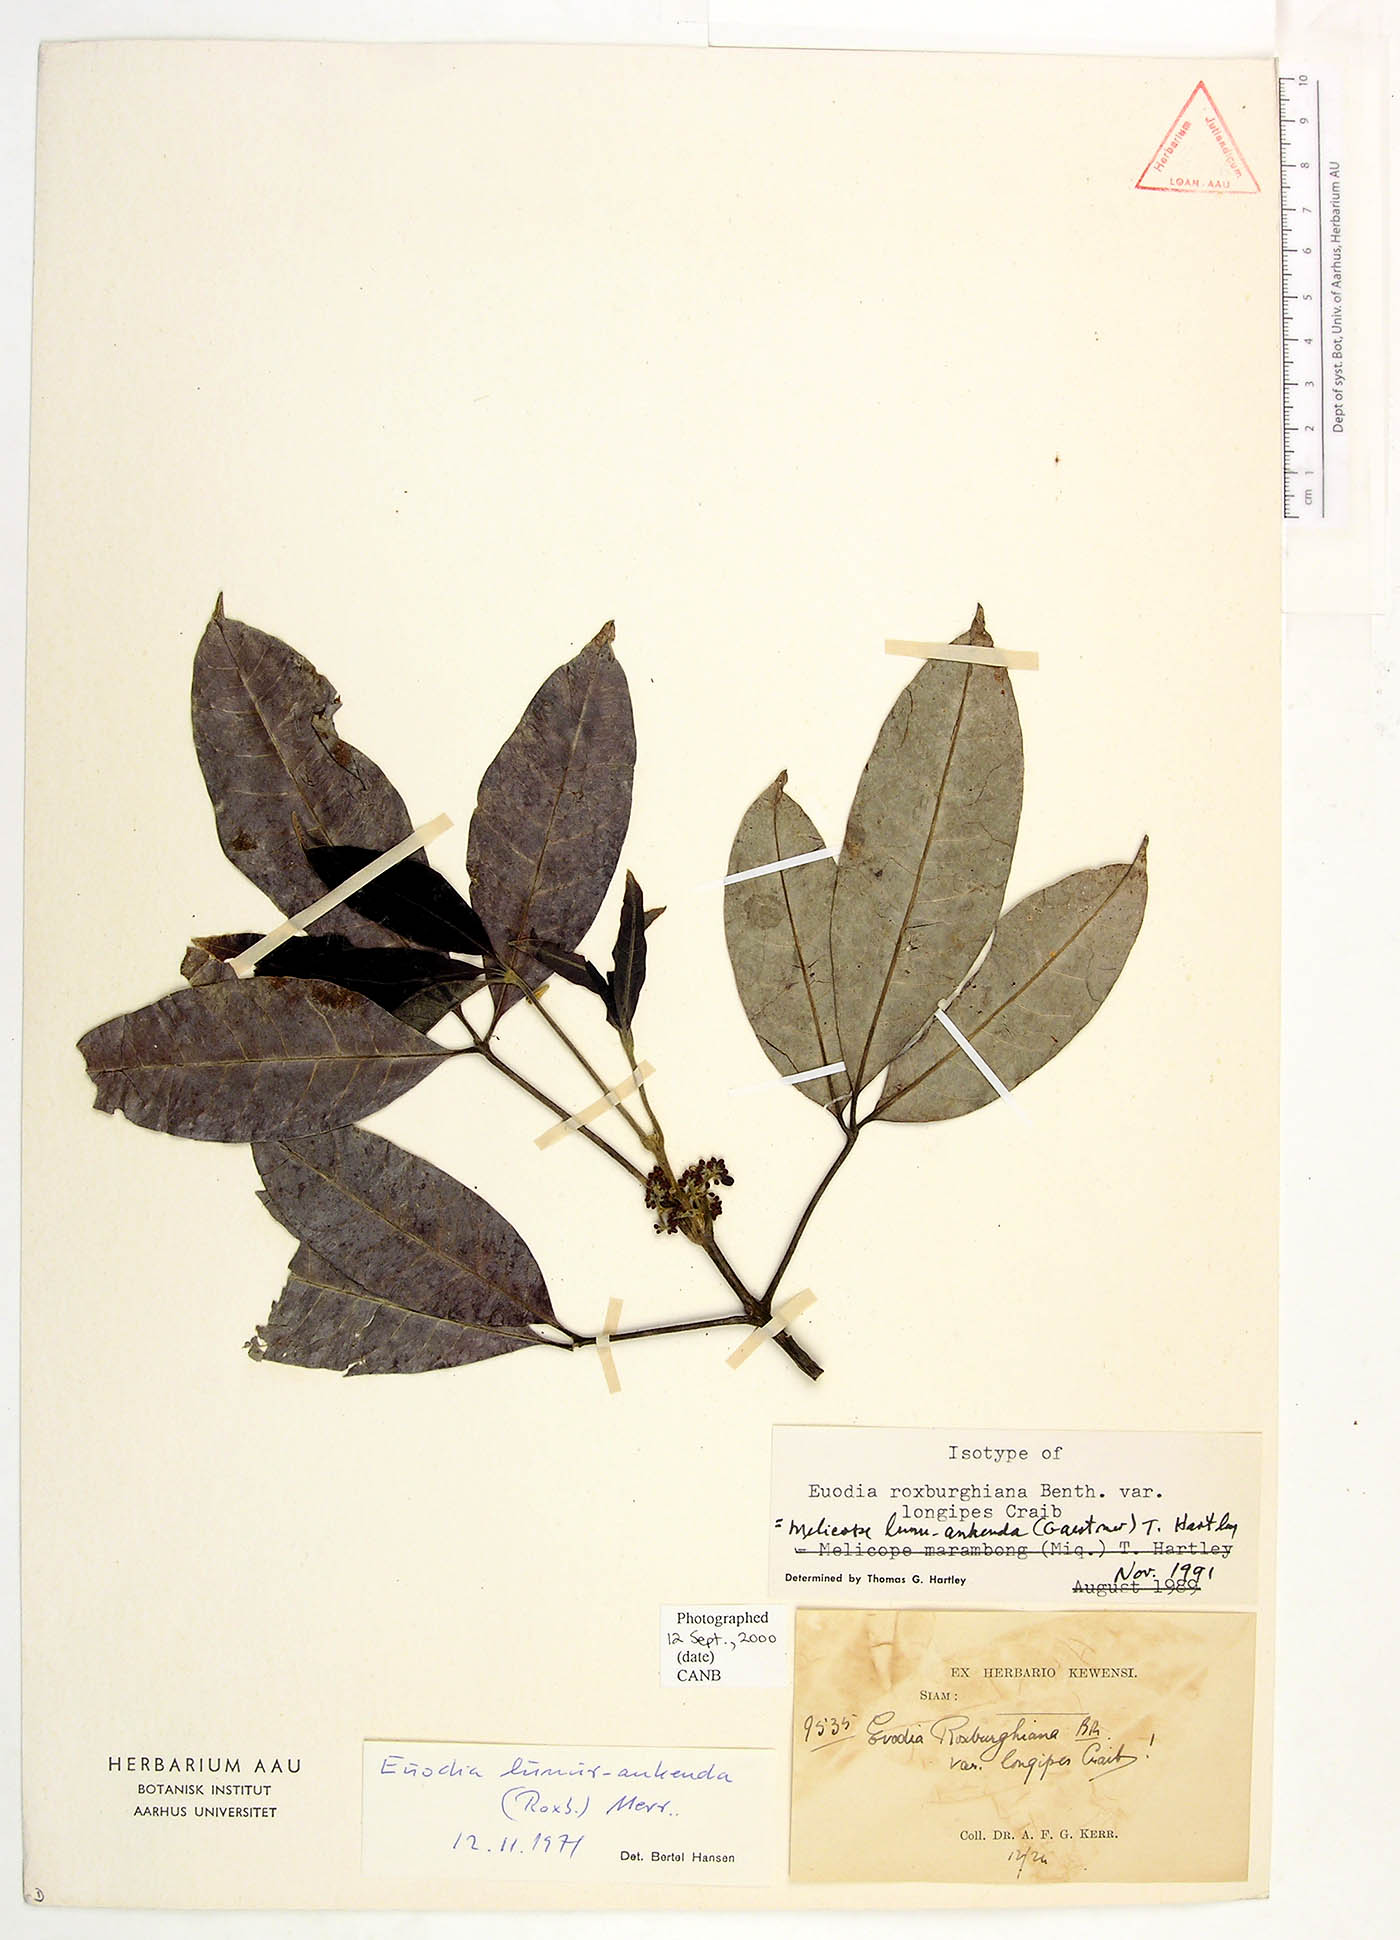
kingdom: Plantae
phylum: Tracheophyta
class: Magnoliopsida
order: Sapindales
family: Rutaceae
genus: Melicope
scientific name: Melicope lunu-ankenda
